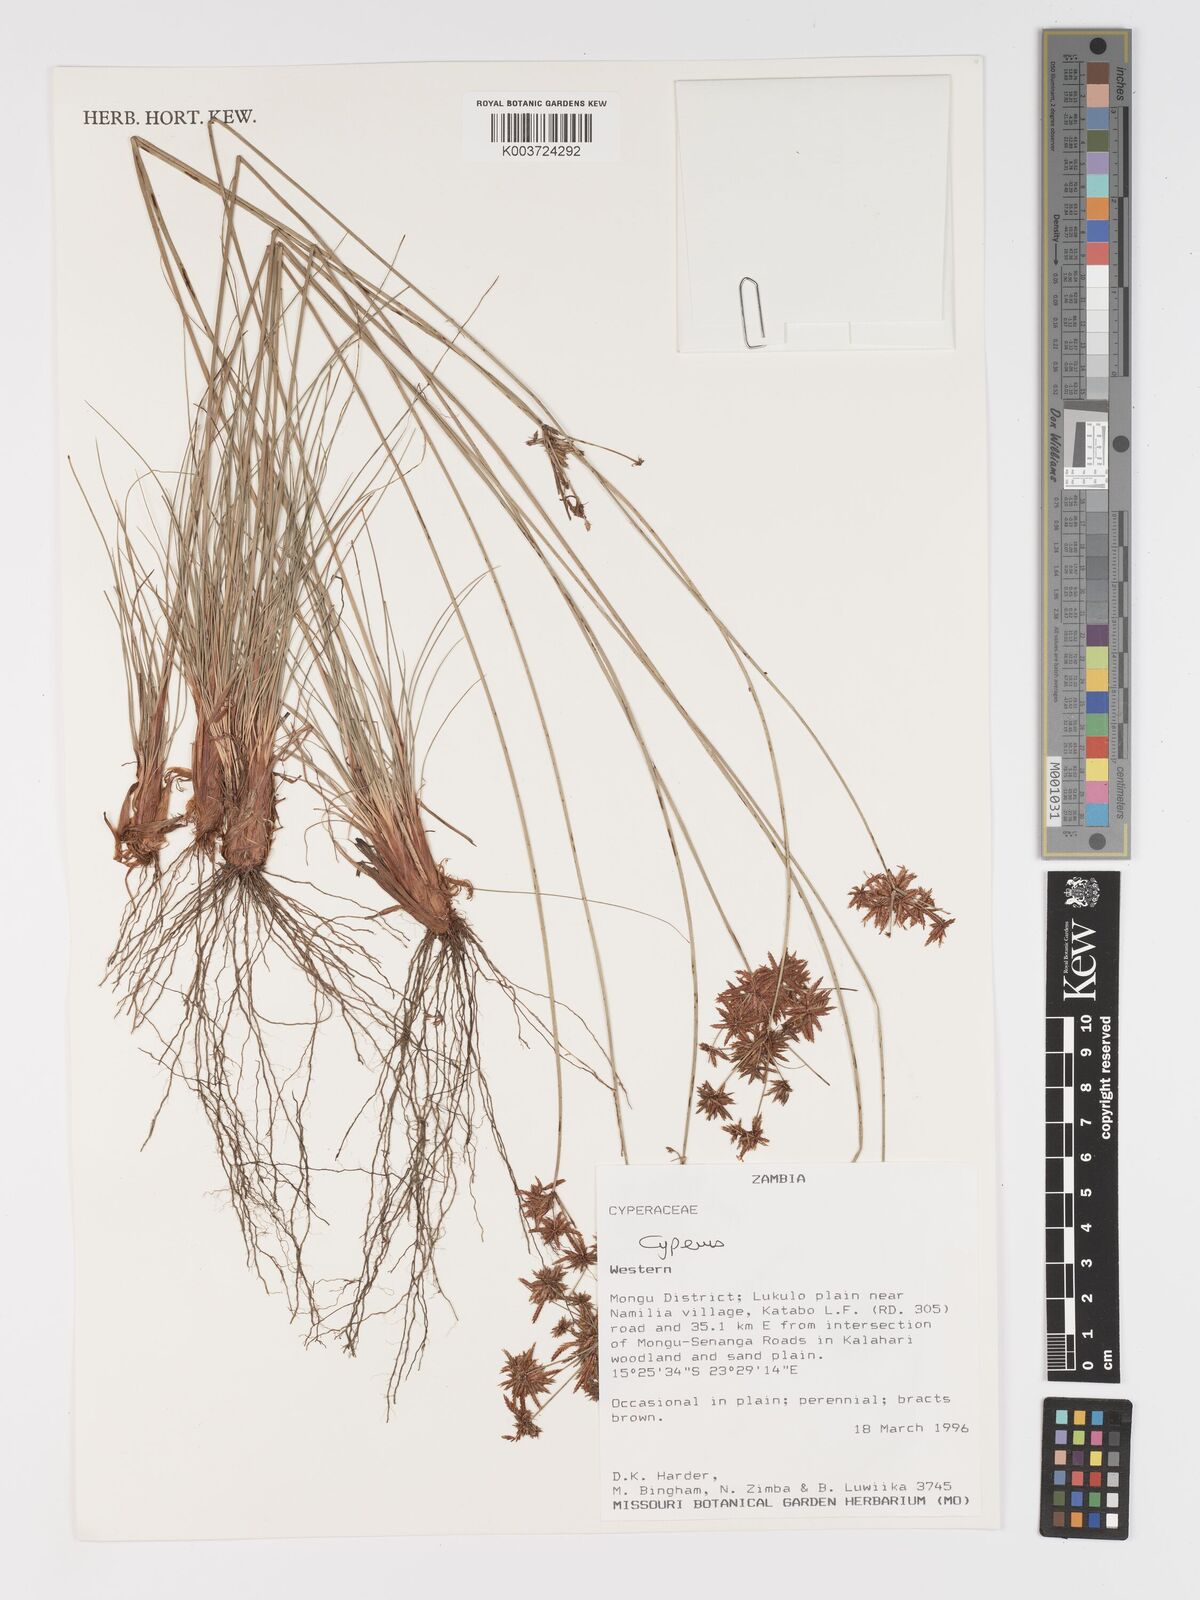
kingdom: Plantae
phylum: Tracheophyta
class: Liliopsida
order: Poales
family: Cyperaceae
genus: Cyperus
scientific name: Cyperus
